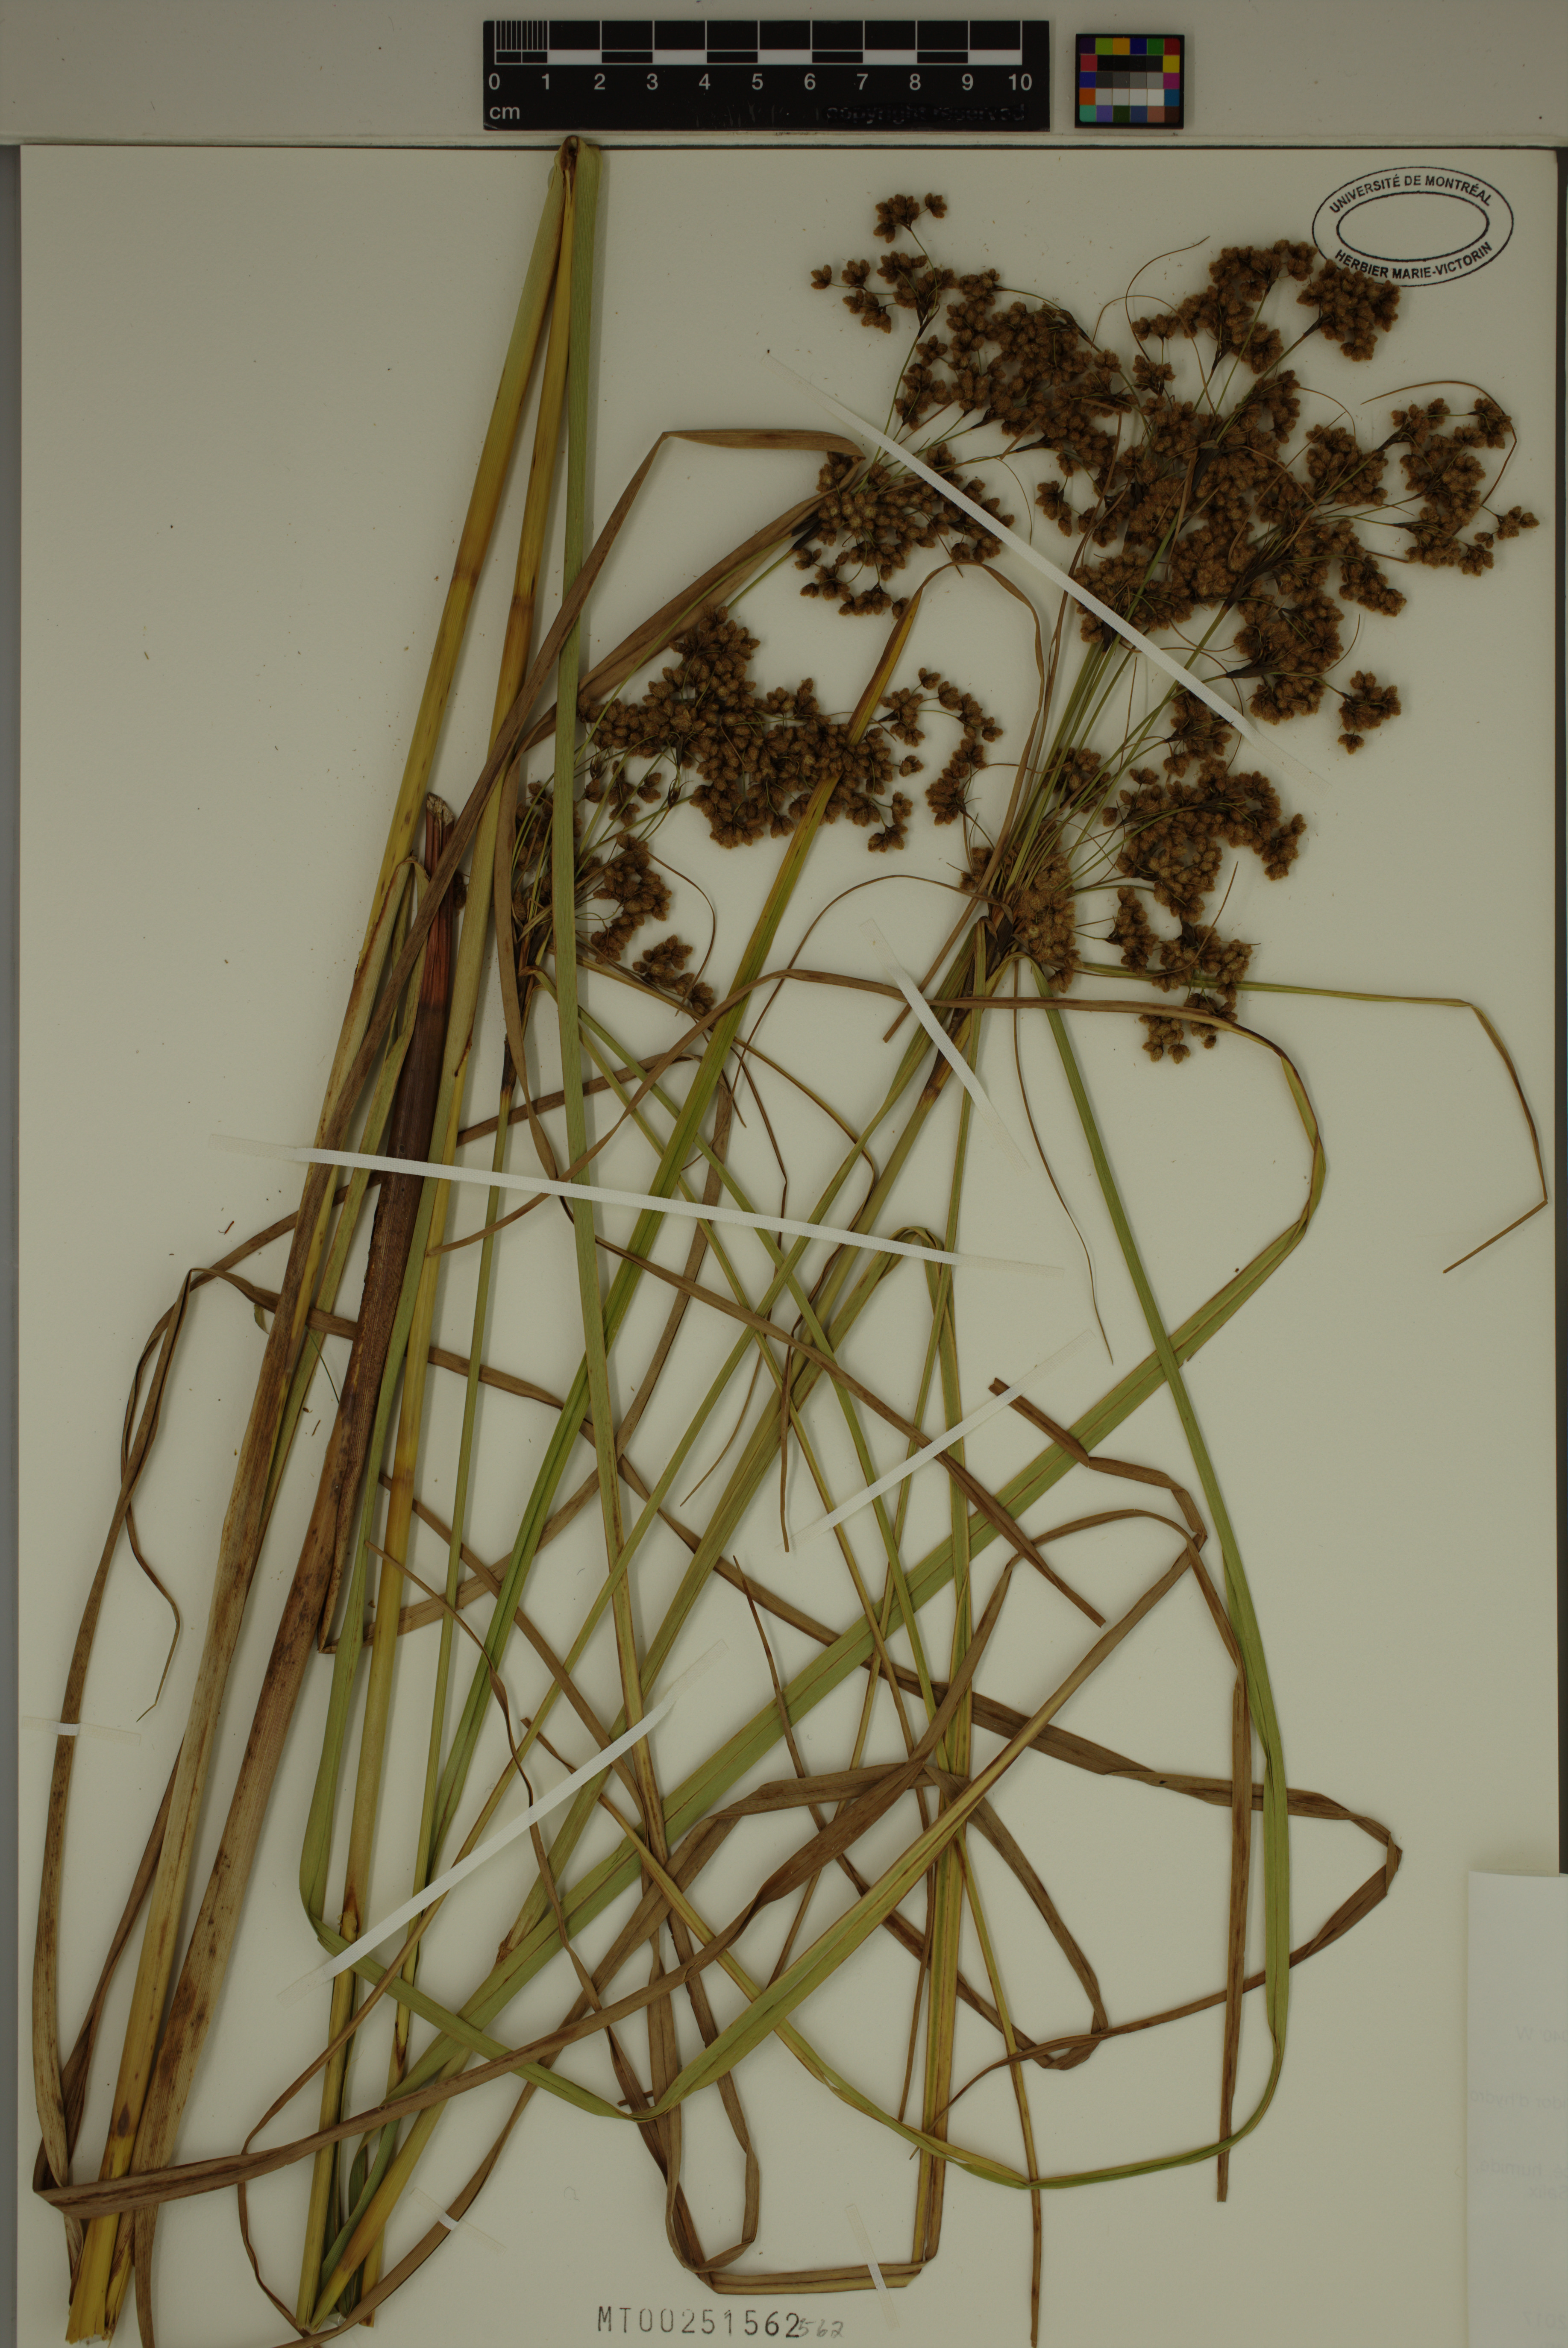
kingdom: Plantae
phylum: Tracheophyta
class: Liliopsida
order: Poales
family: Cyperaceae
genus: Scirpus
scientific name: Scirpus cyperinus
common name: Black-sheathed bulrush
